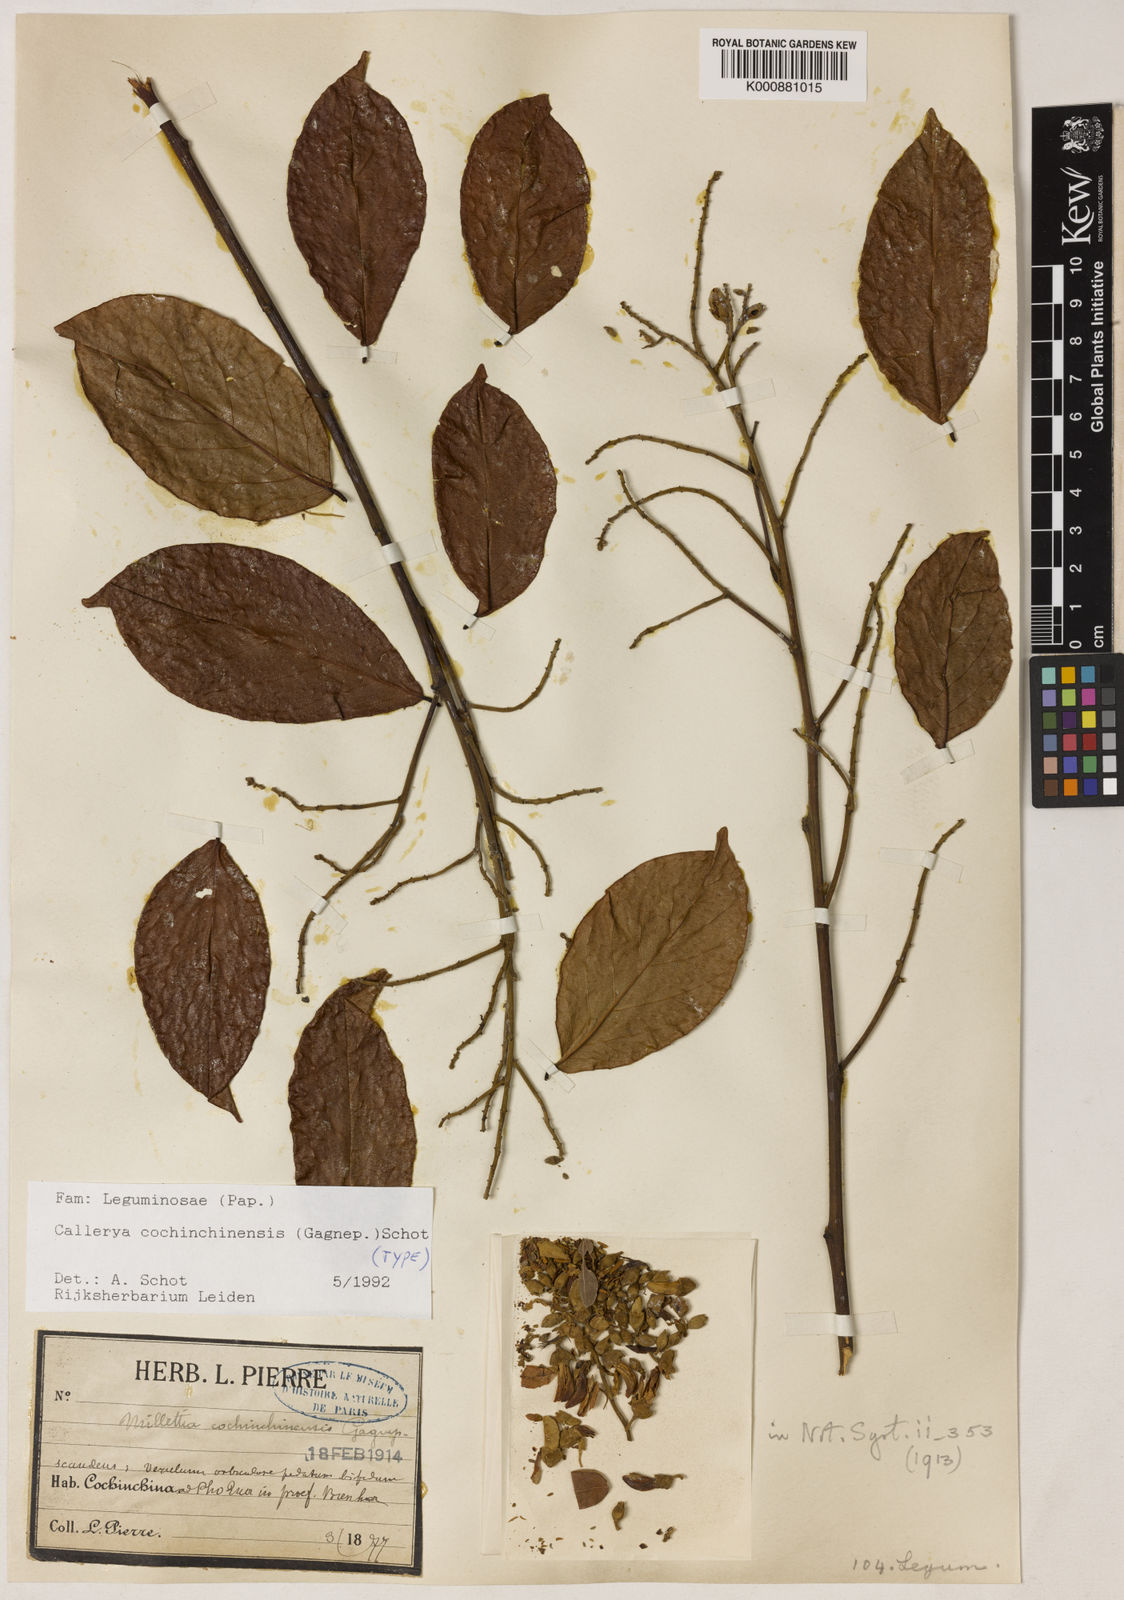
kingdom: Plantae
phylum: Tracheophyta
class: Magnoliopsida
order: Fabales
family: Fabaceae
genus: Callerya
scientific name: Callerya cochinchinensis
